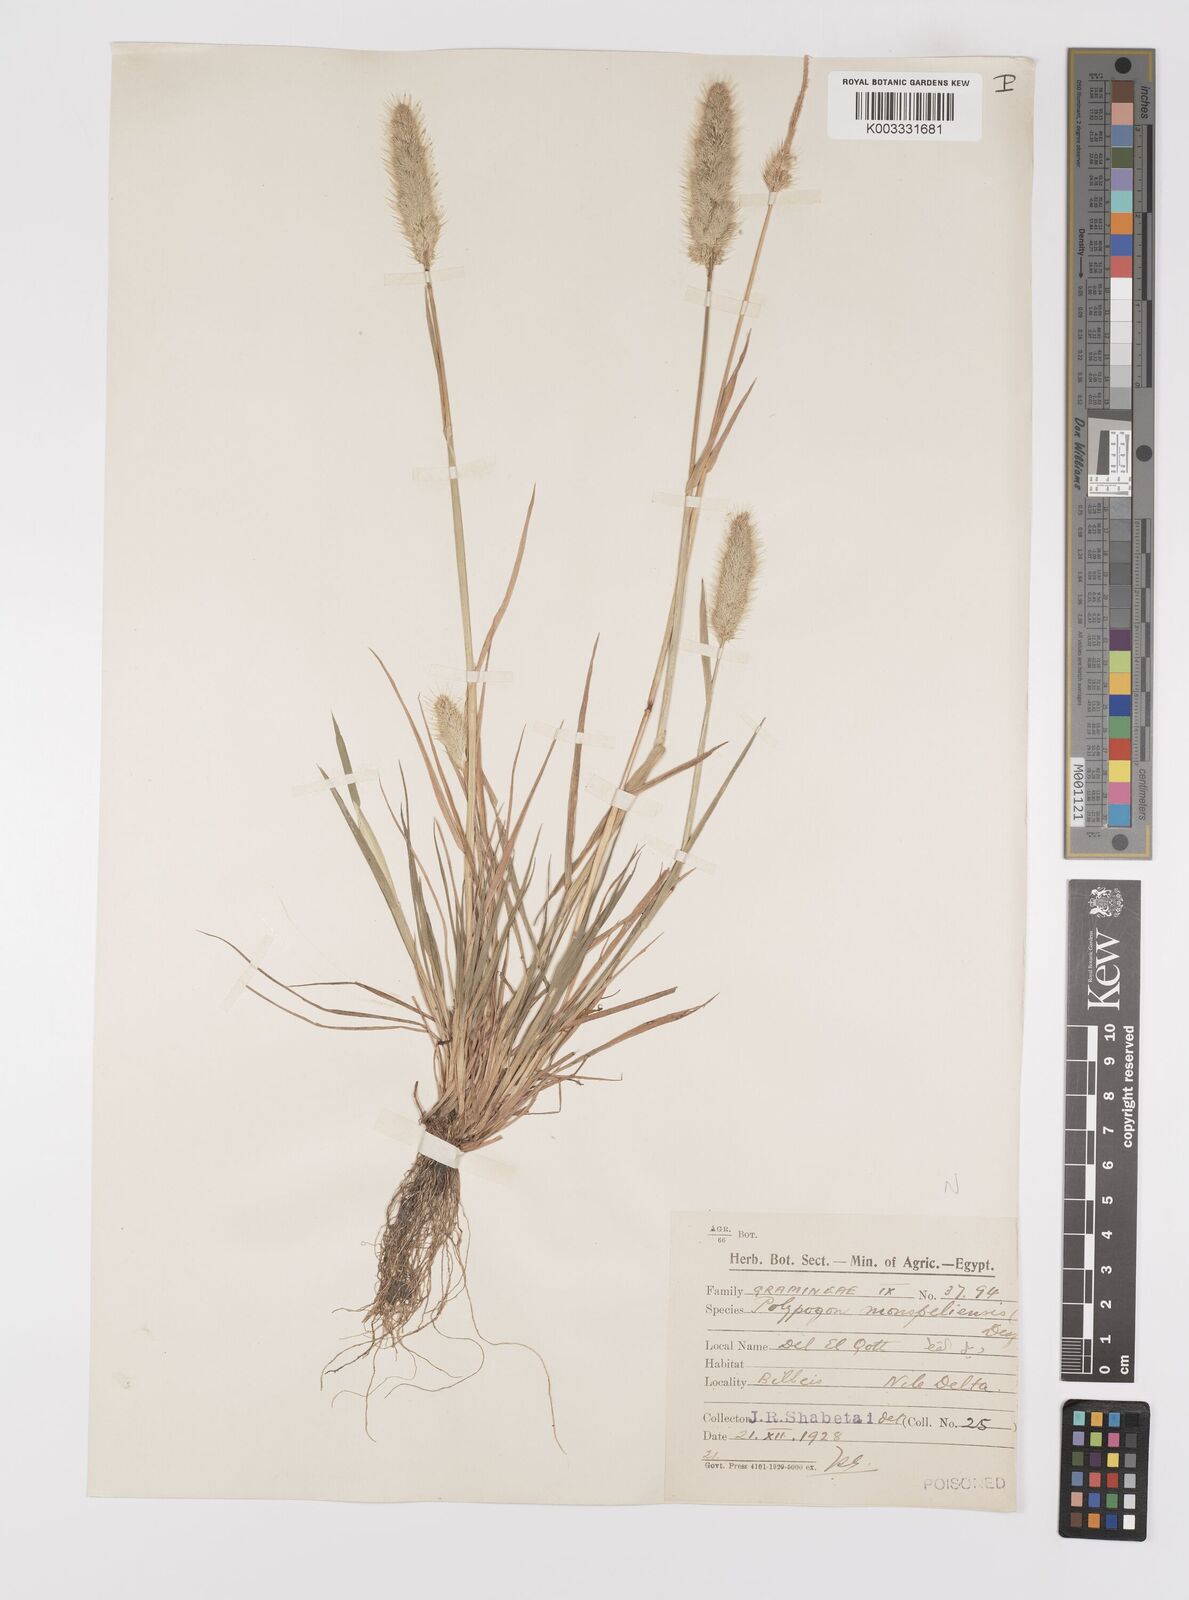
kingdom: Plantae
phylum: Tracheophyta
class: Liliopsida
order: Poales
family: Poaceae
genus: Polypogon
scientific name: Polypogon monspeliensis
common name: Annual rabbitsfoot grass
